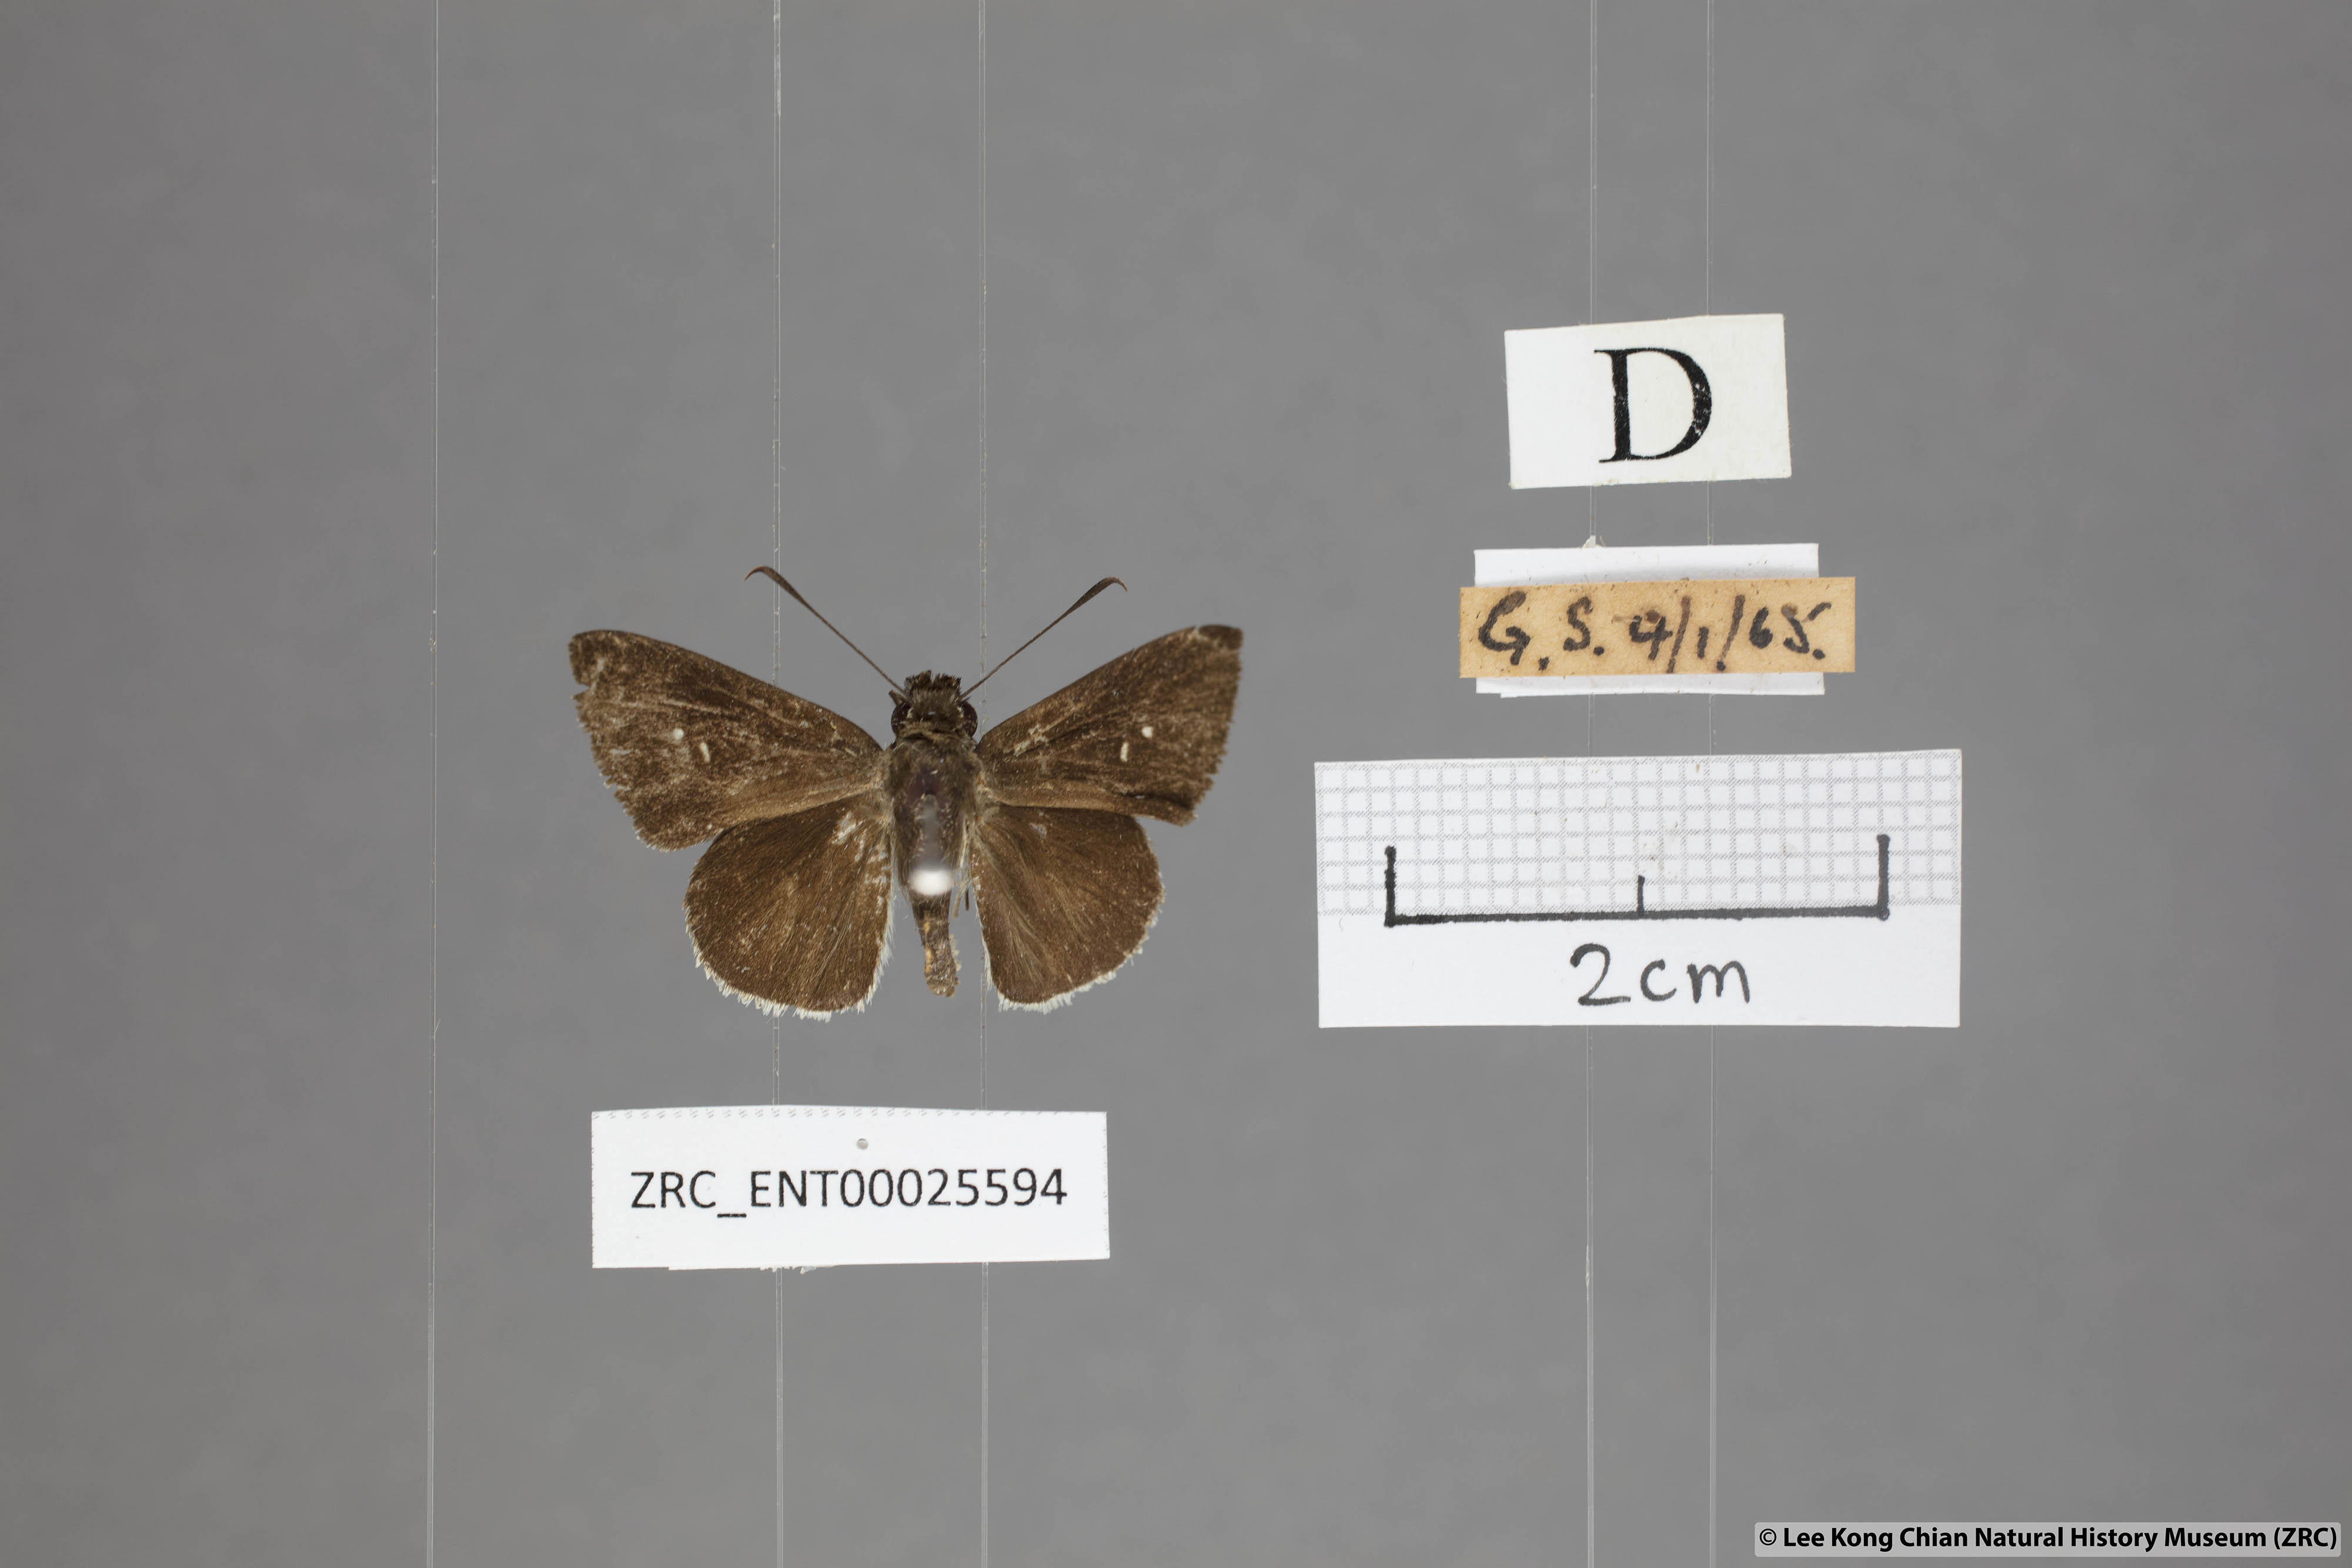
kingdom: Animalia
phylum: Arthropoda
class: Insecta
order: Lepidoptera
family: Hesperiidae
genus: Suastus
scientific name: Suastus minuta
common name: Small palm bob
